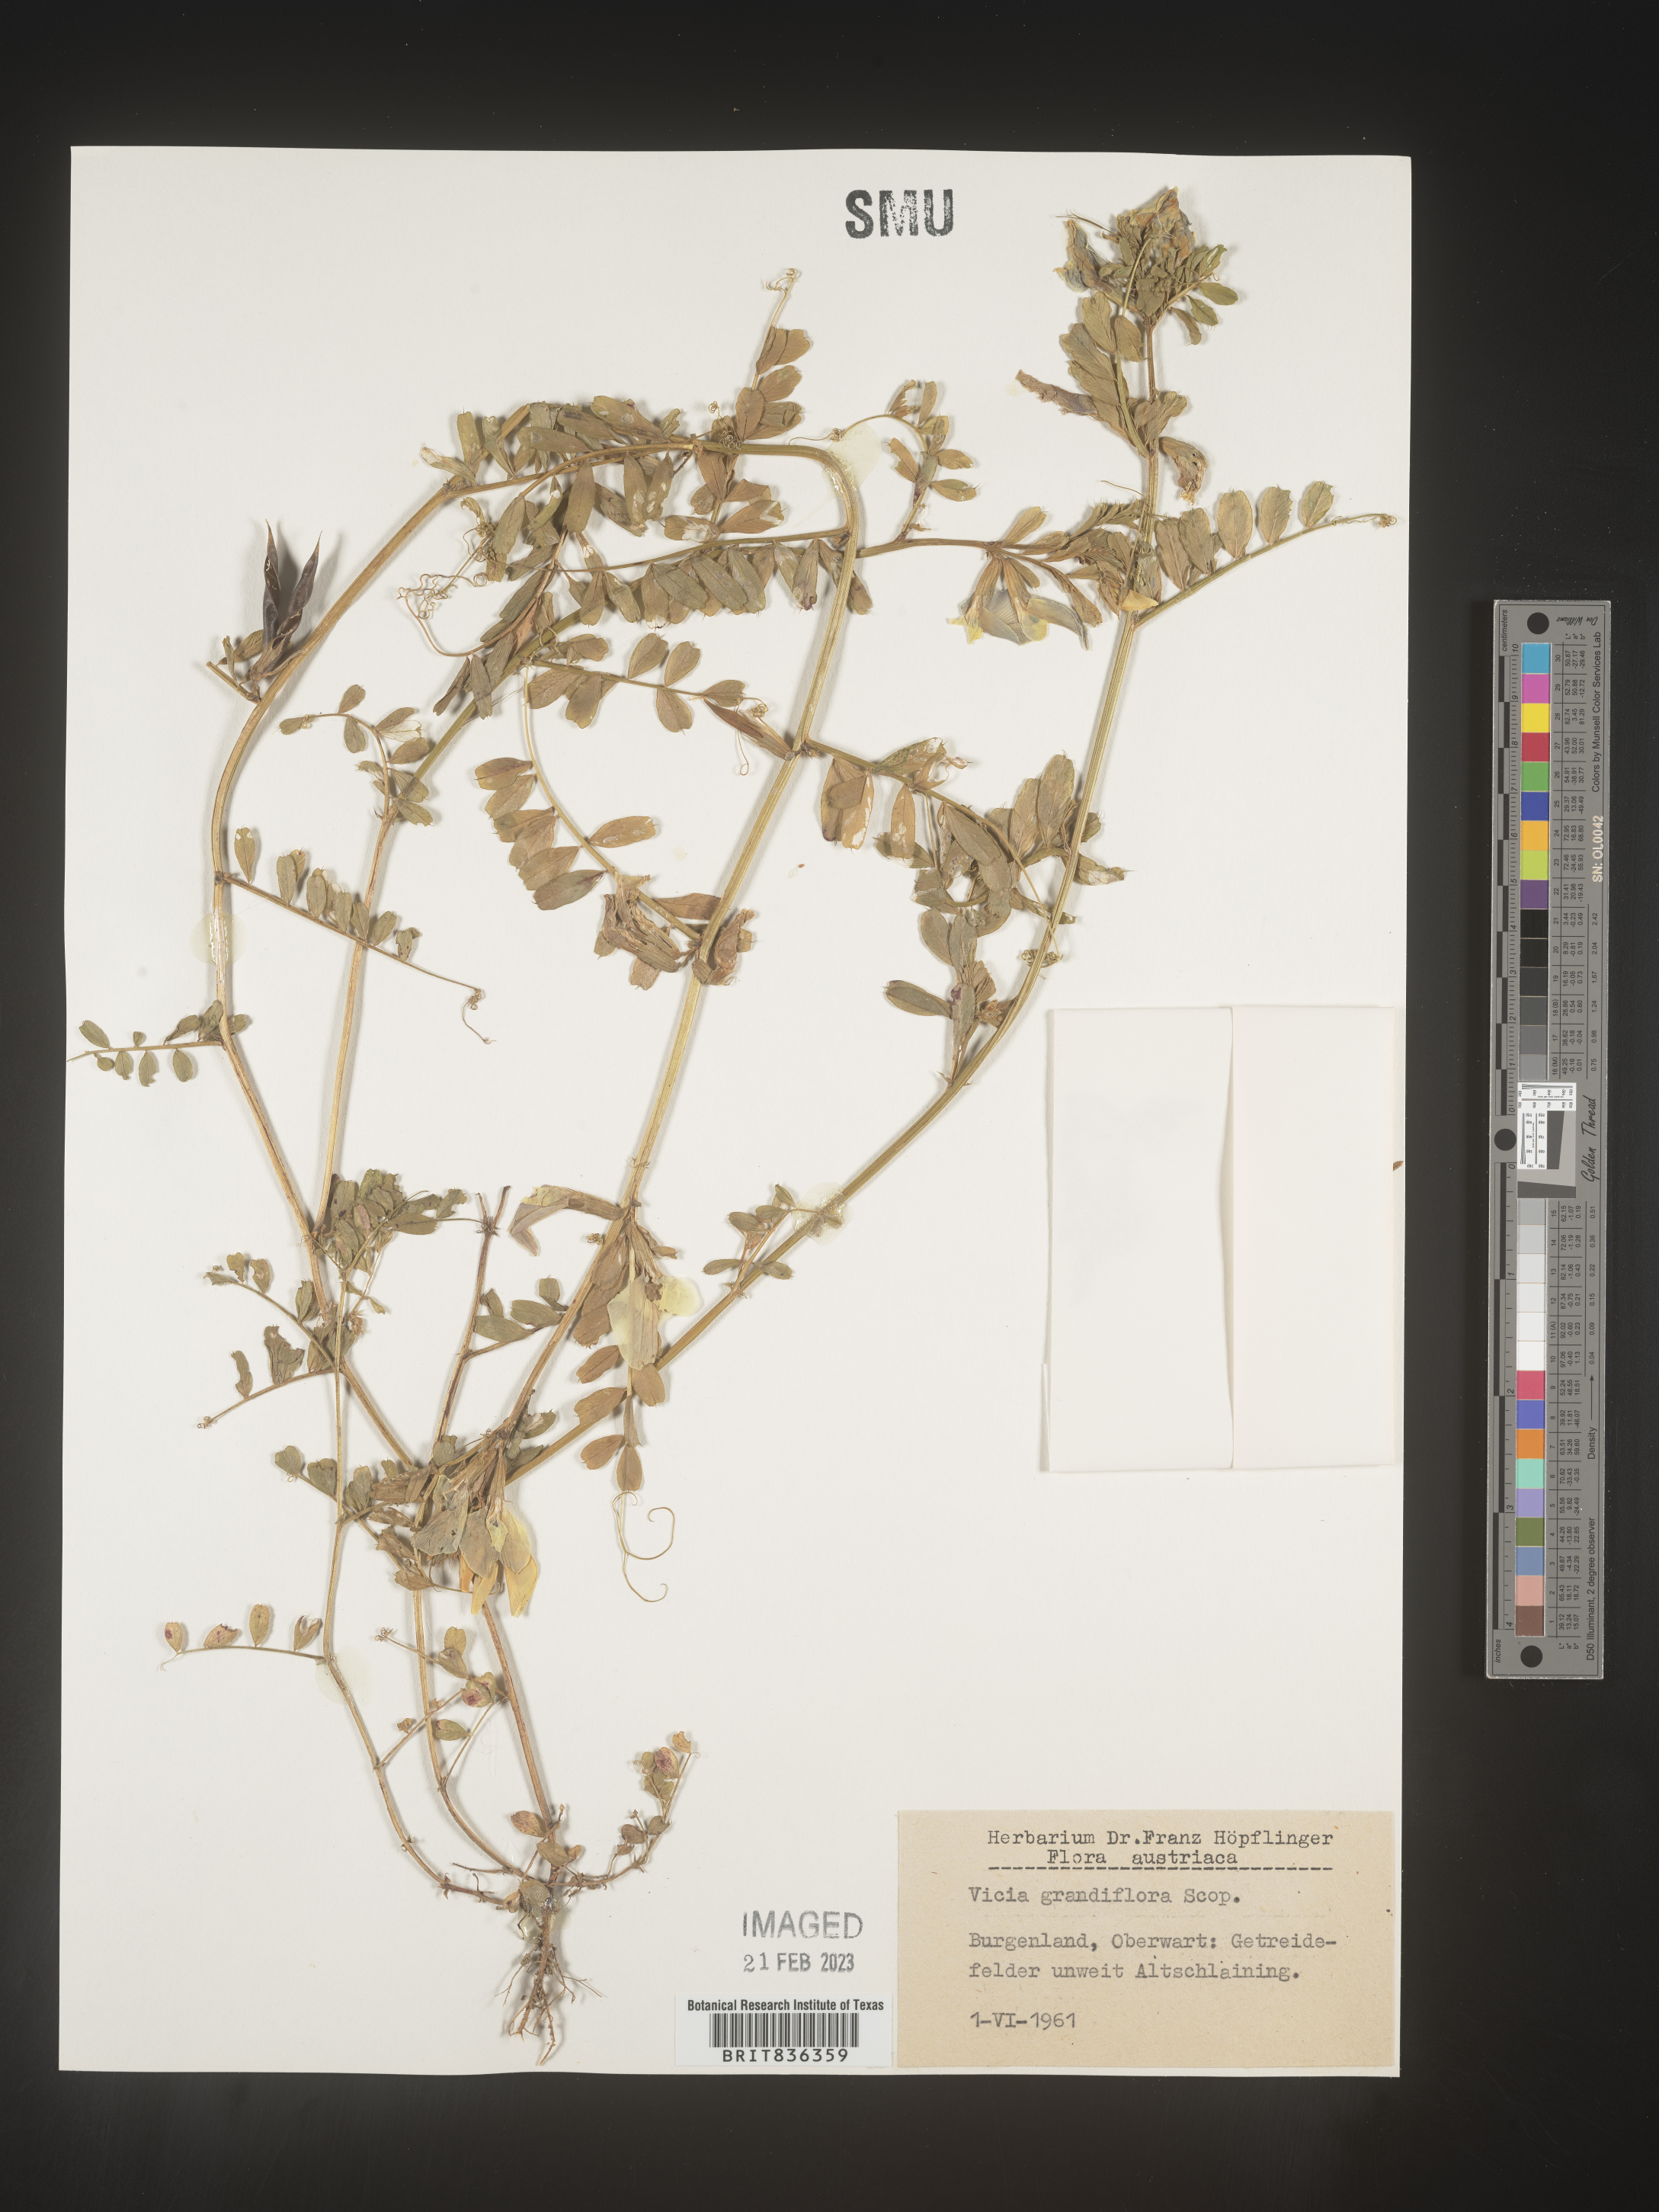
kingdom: Plantae
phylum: Tracheophyta
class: Magnoliopsida
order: Fabales
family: Fabaceae
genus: Vicia
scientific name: Vicia
